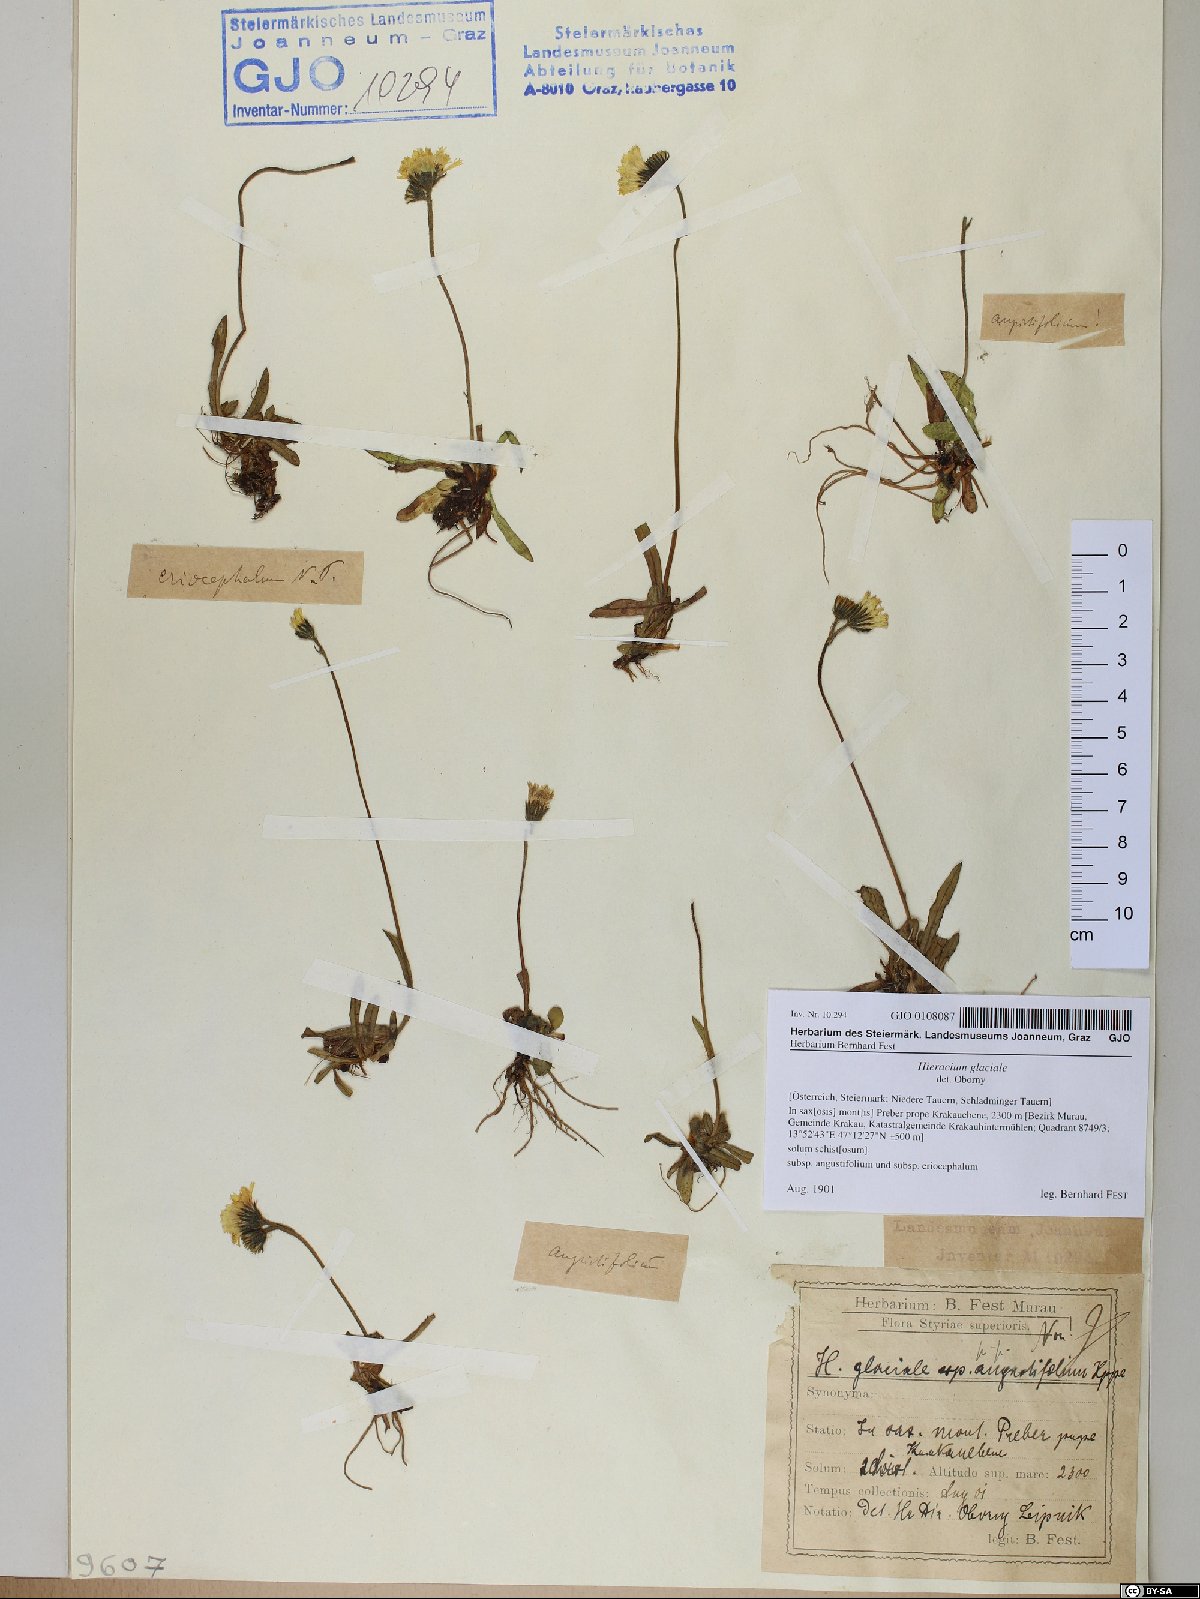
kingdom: Plantae
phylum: Tracheophyta
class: Magnoliopsida
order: Asterales
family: Asteraceae
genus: Pilosella
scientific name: Pilosella glacialis
